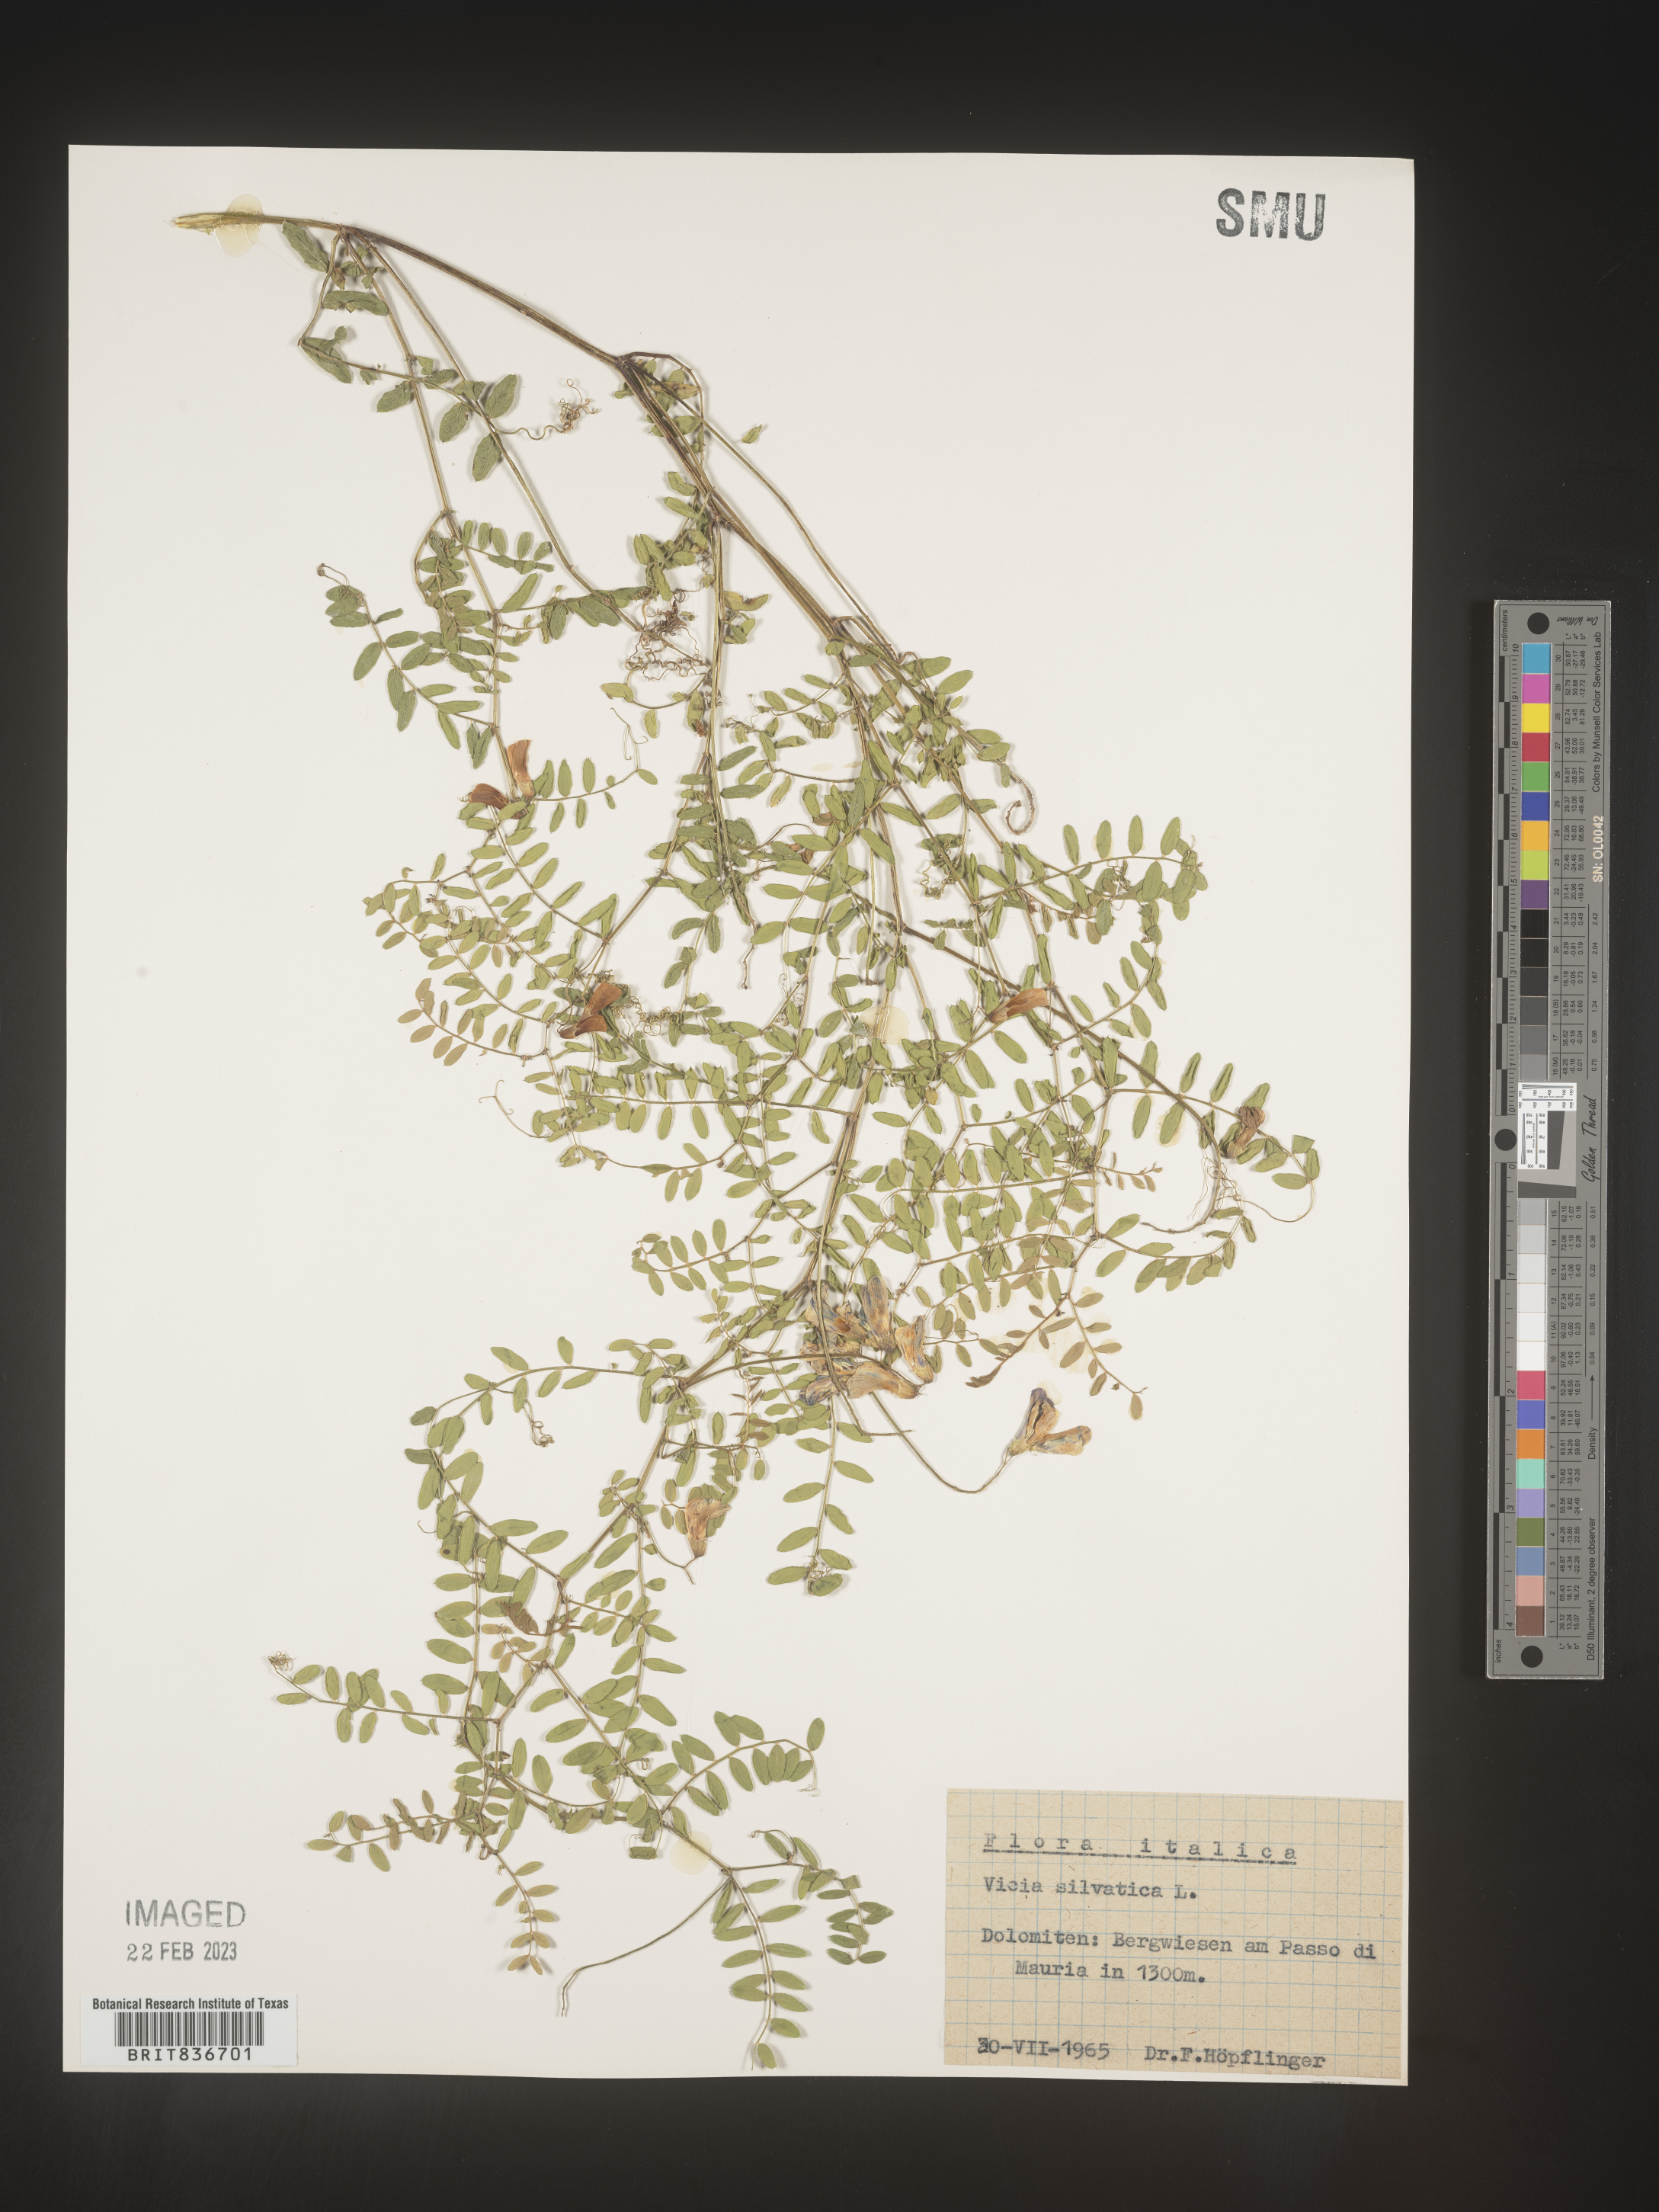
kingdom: Plantae
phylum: Tracheophyta
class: Magnoliopsida
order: Fabales
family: Fabaceae
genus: Vicia
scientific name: Vicia sylvatica
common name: Wood vetch
